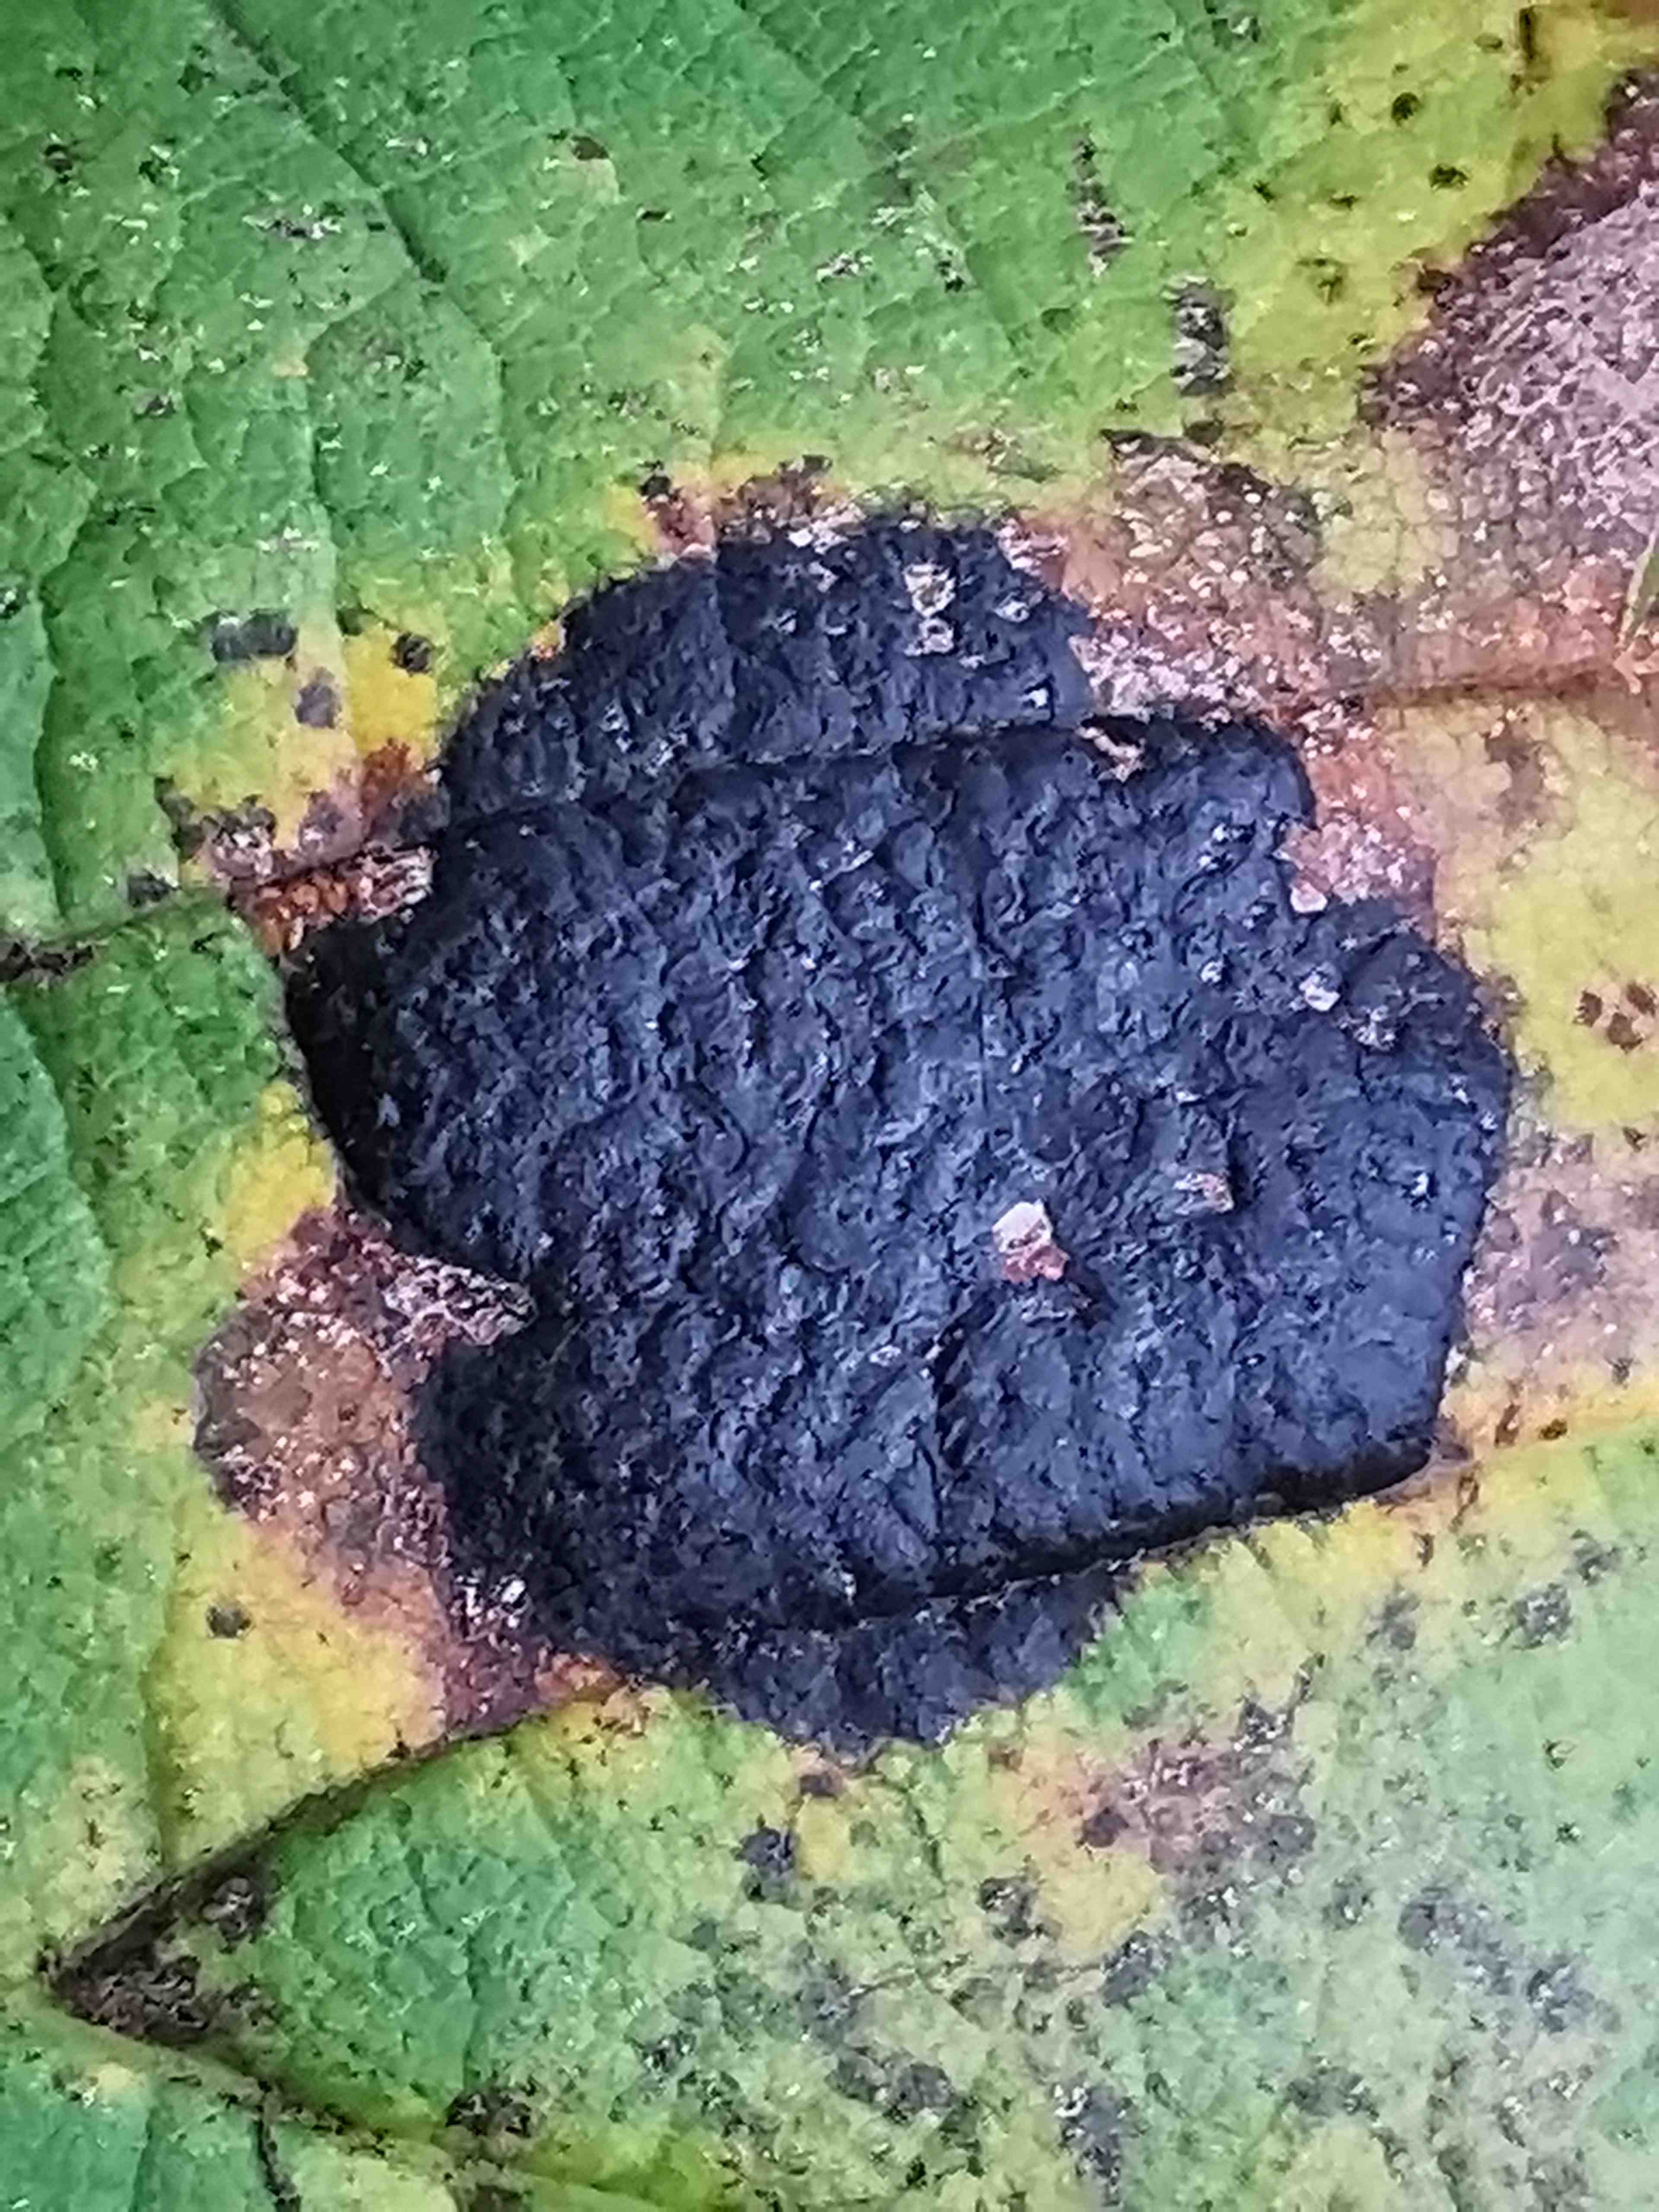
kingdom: Fungi
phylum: Ascomycota
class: Leotiomycetes
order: Rhytismatales
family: Rhytismataceae
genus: Rhytisma
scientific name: Rhytisma acerinum
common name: ahorn-rynkeplet
